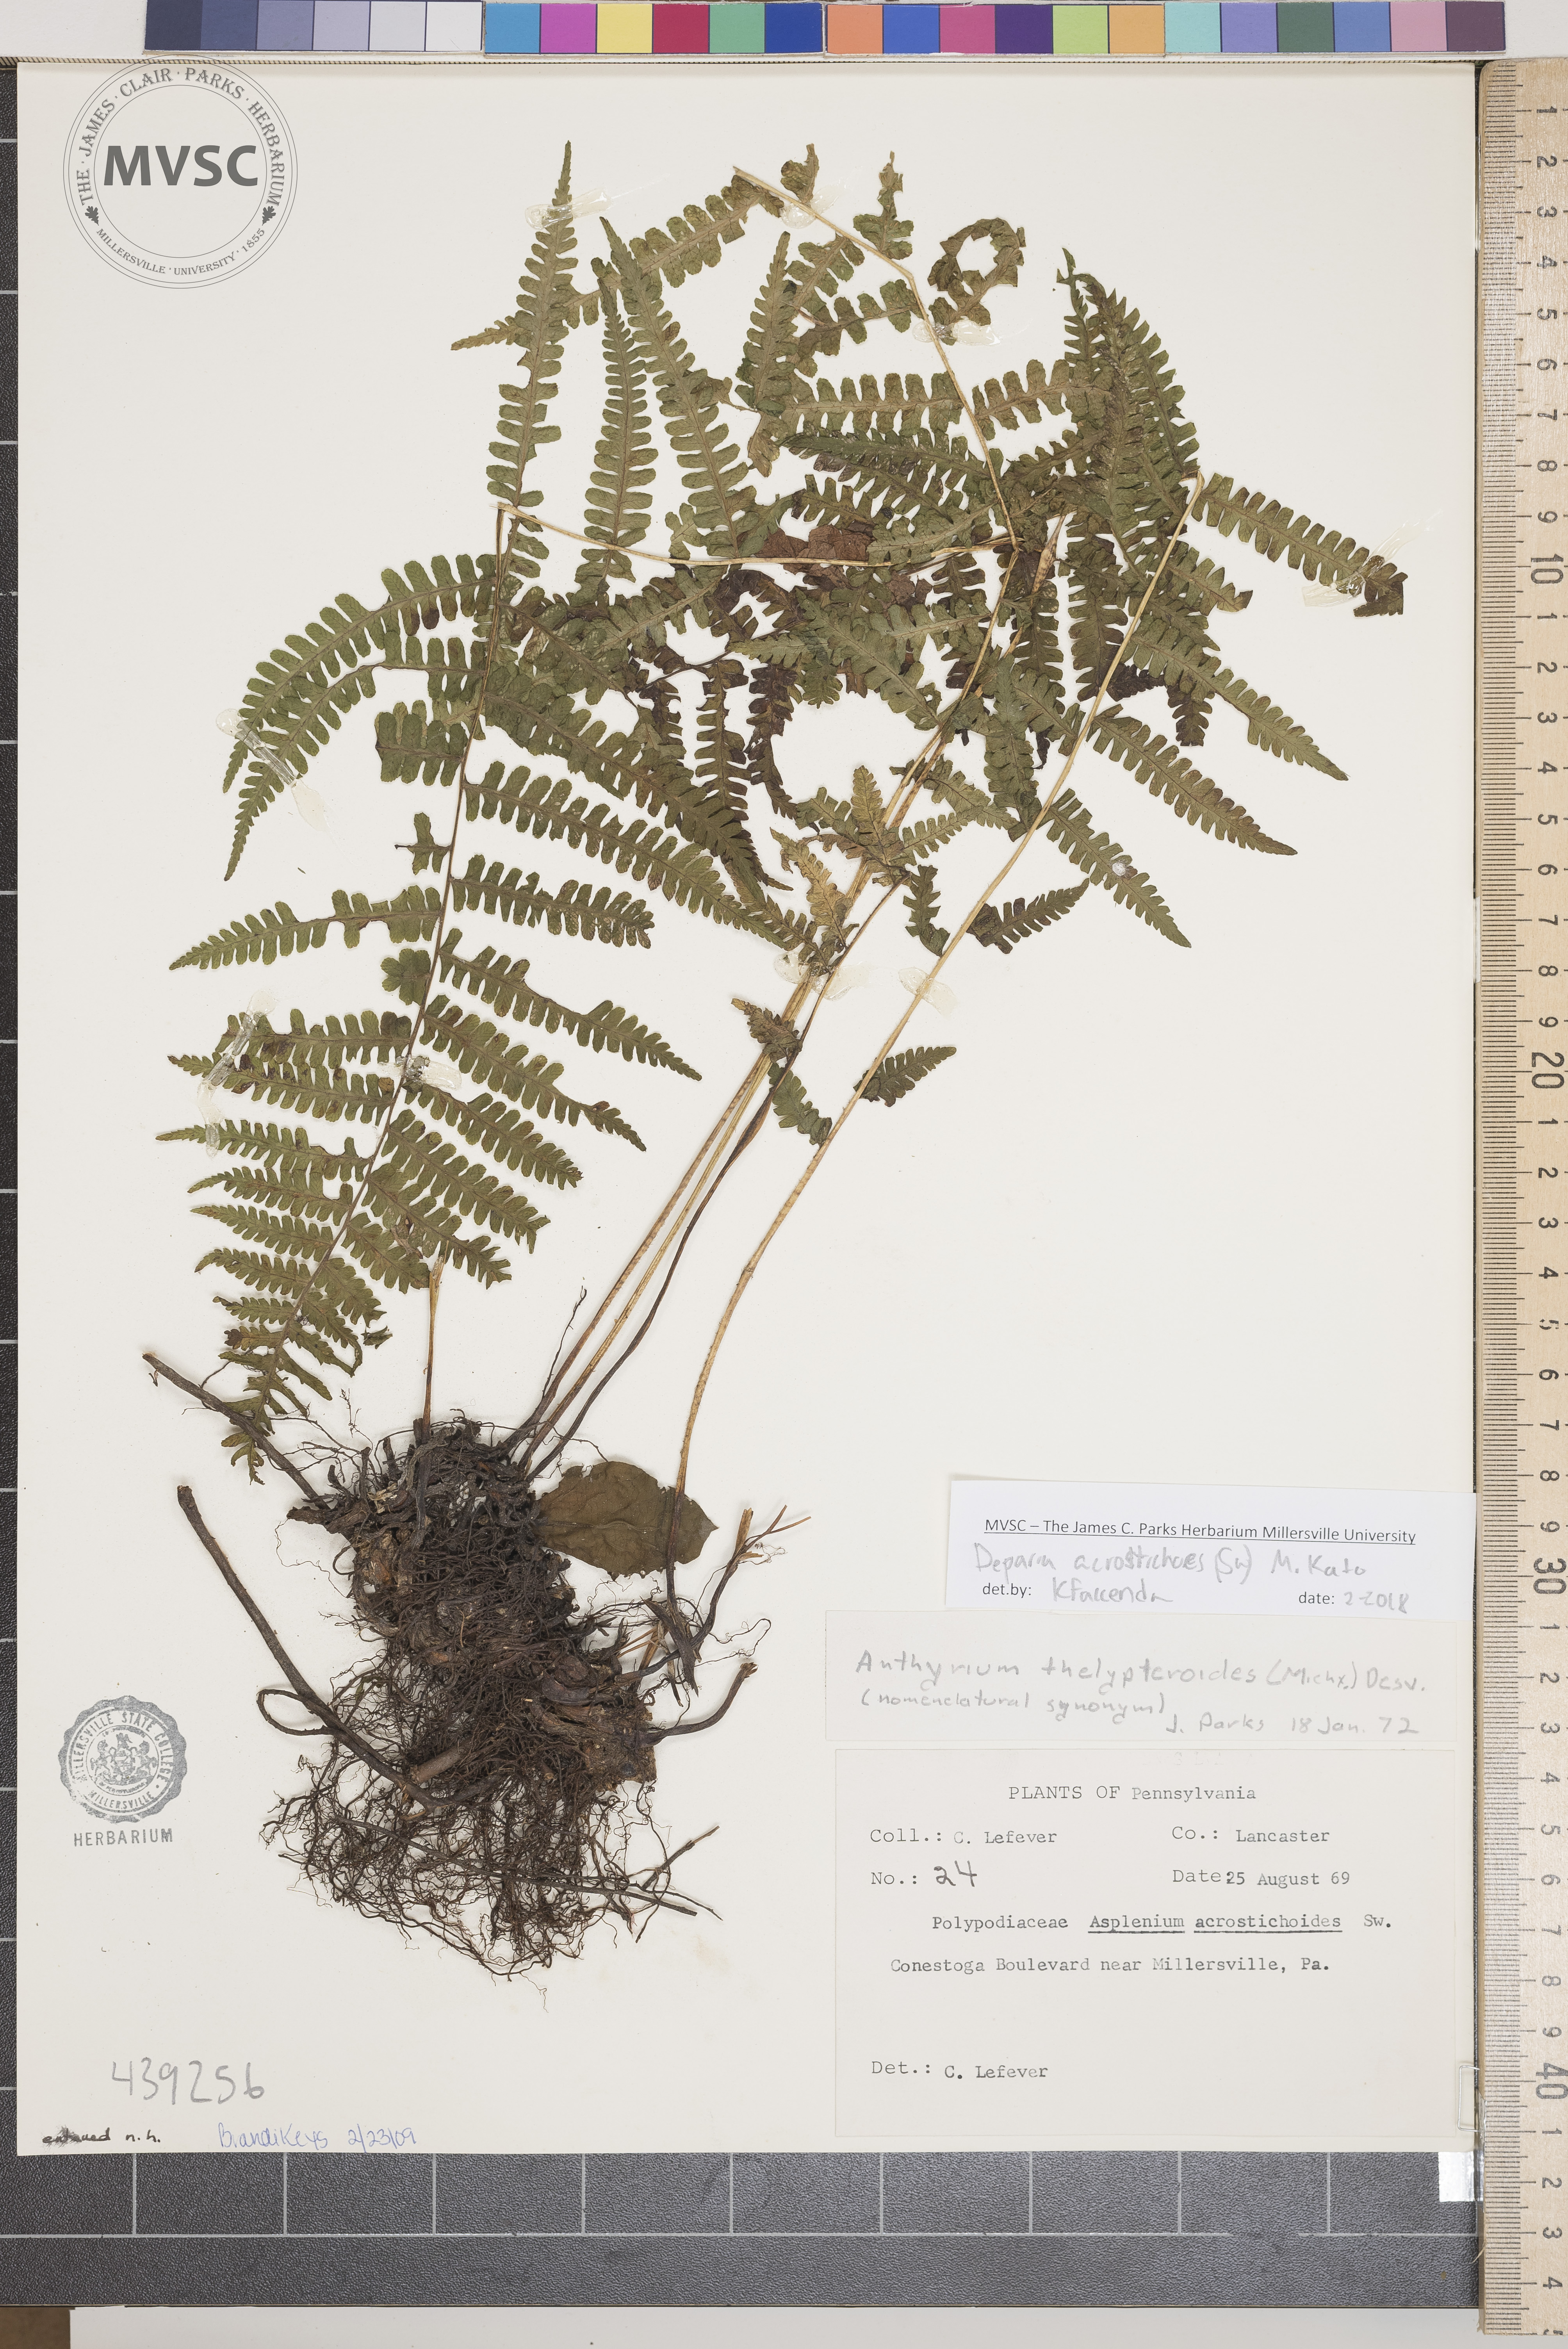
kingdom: Plantae
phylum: Tracheophyta
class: Polypodiopsida
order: Polypodiales
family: Athyriaceae
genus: Deparia
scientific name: Deparia acrostichoides
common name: Silvery glade fern
